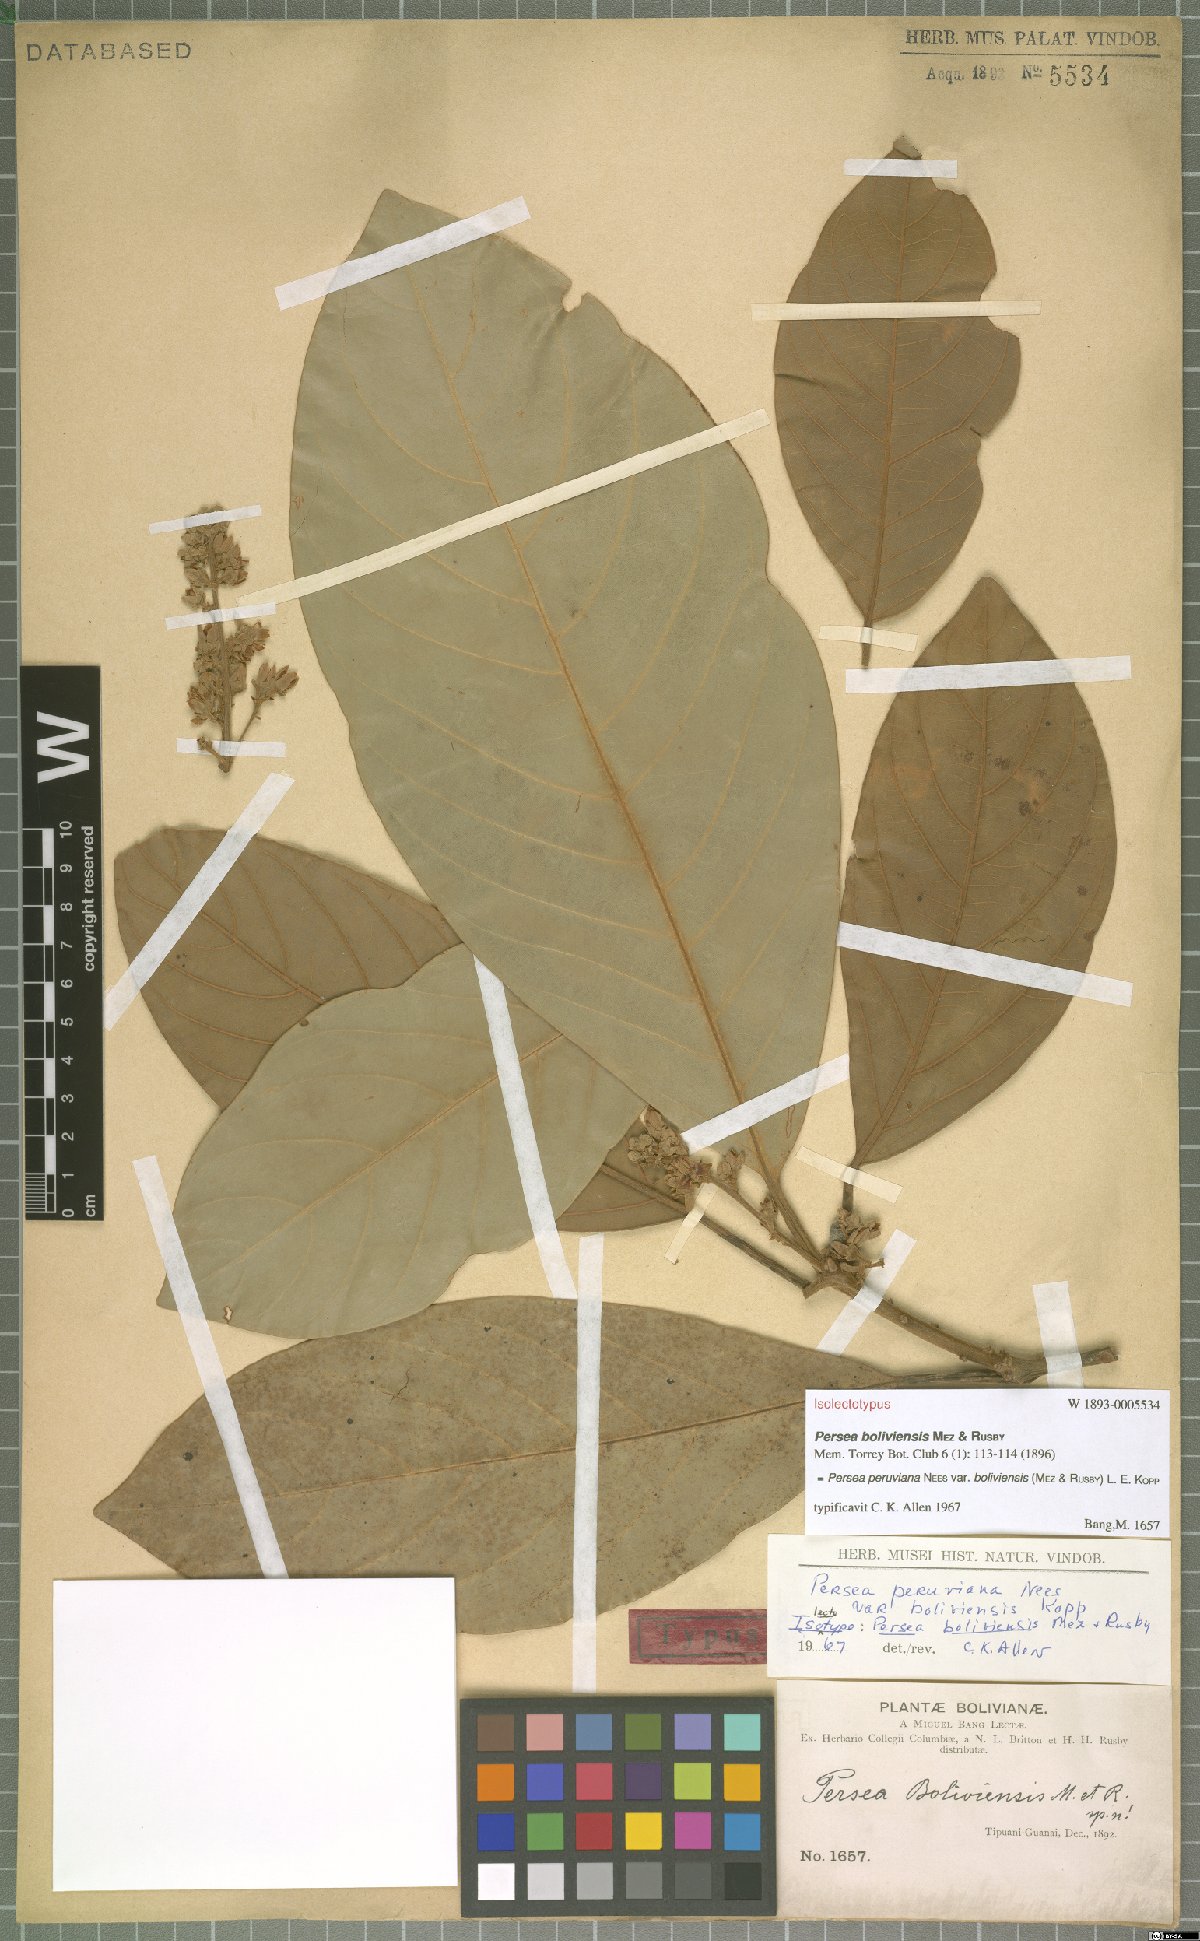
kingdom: Plantae
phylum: Tracheophyta
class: Magnoliopsida
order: Laurales
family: Lauraceae
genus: Persea
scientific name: Persea peruviana
